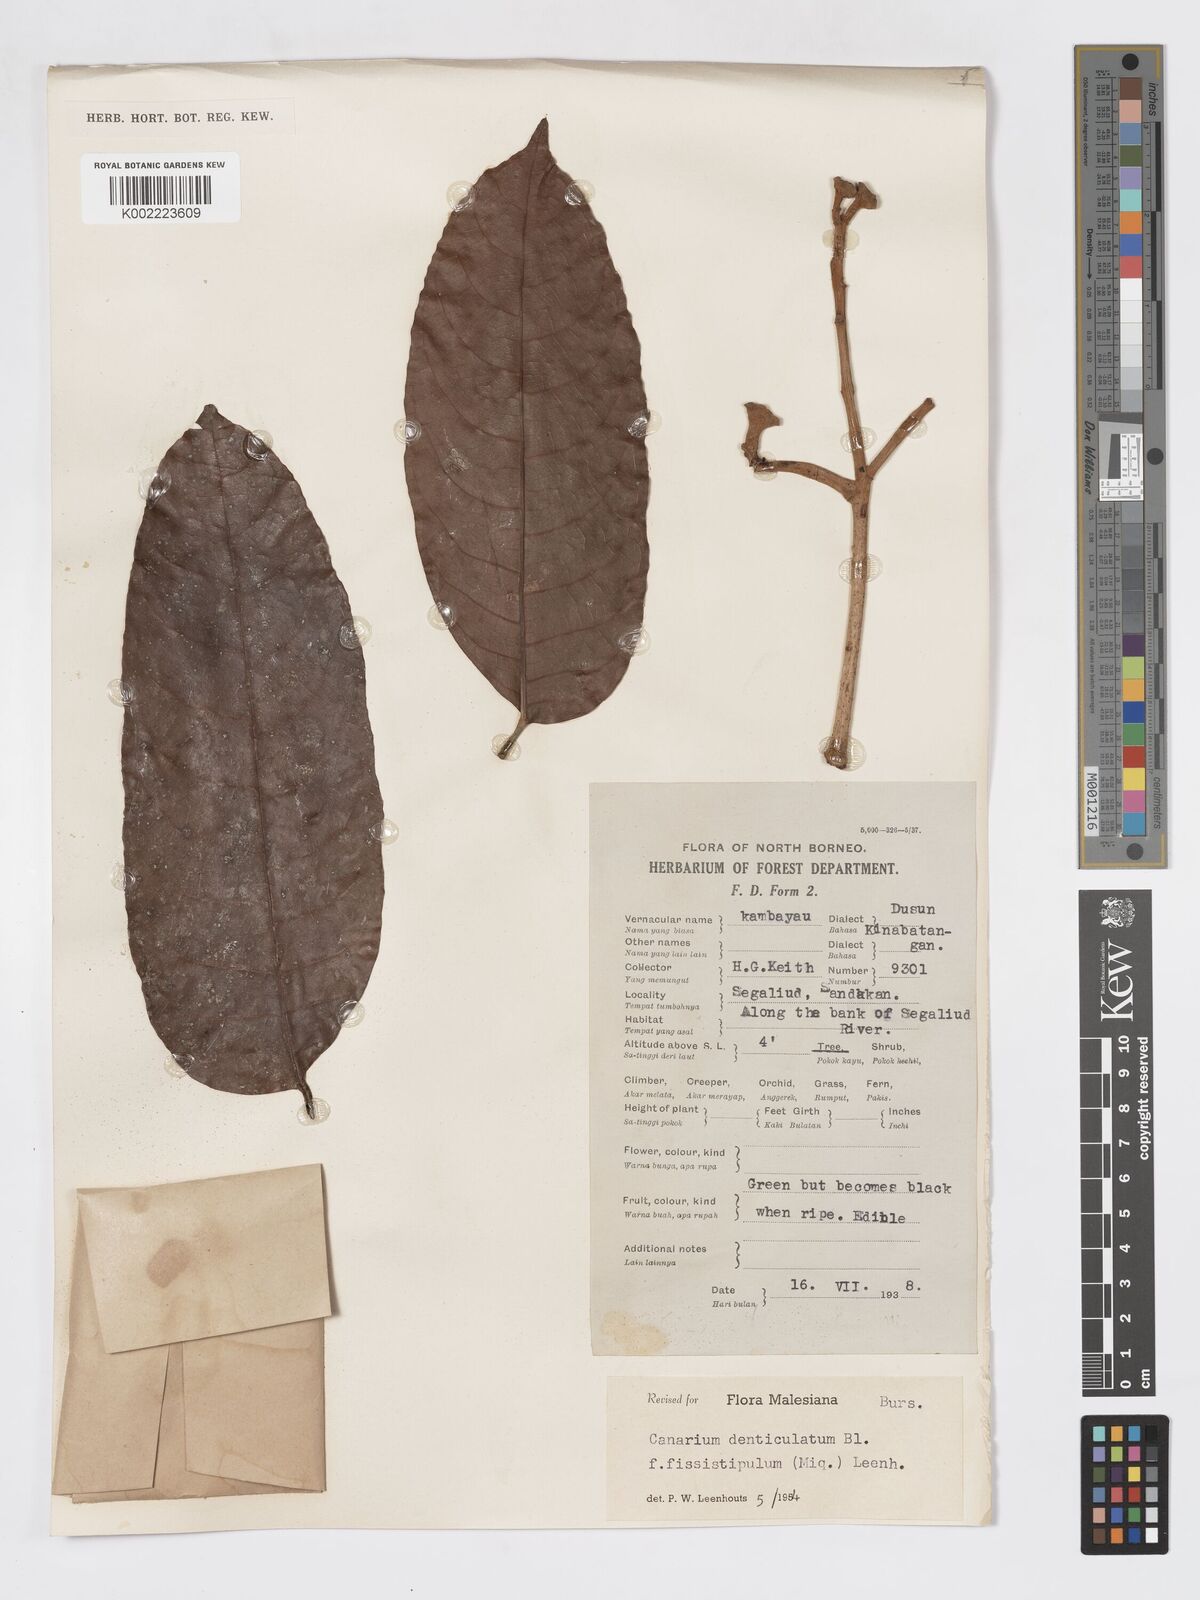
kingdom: Plantae
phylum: Tracheophyta
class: Magnoliopsida
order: Sapindales
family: Burseraceae
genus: Canarium
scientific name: Canarium denticulatum
